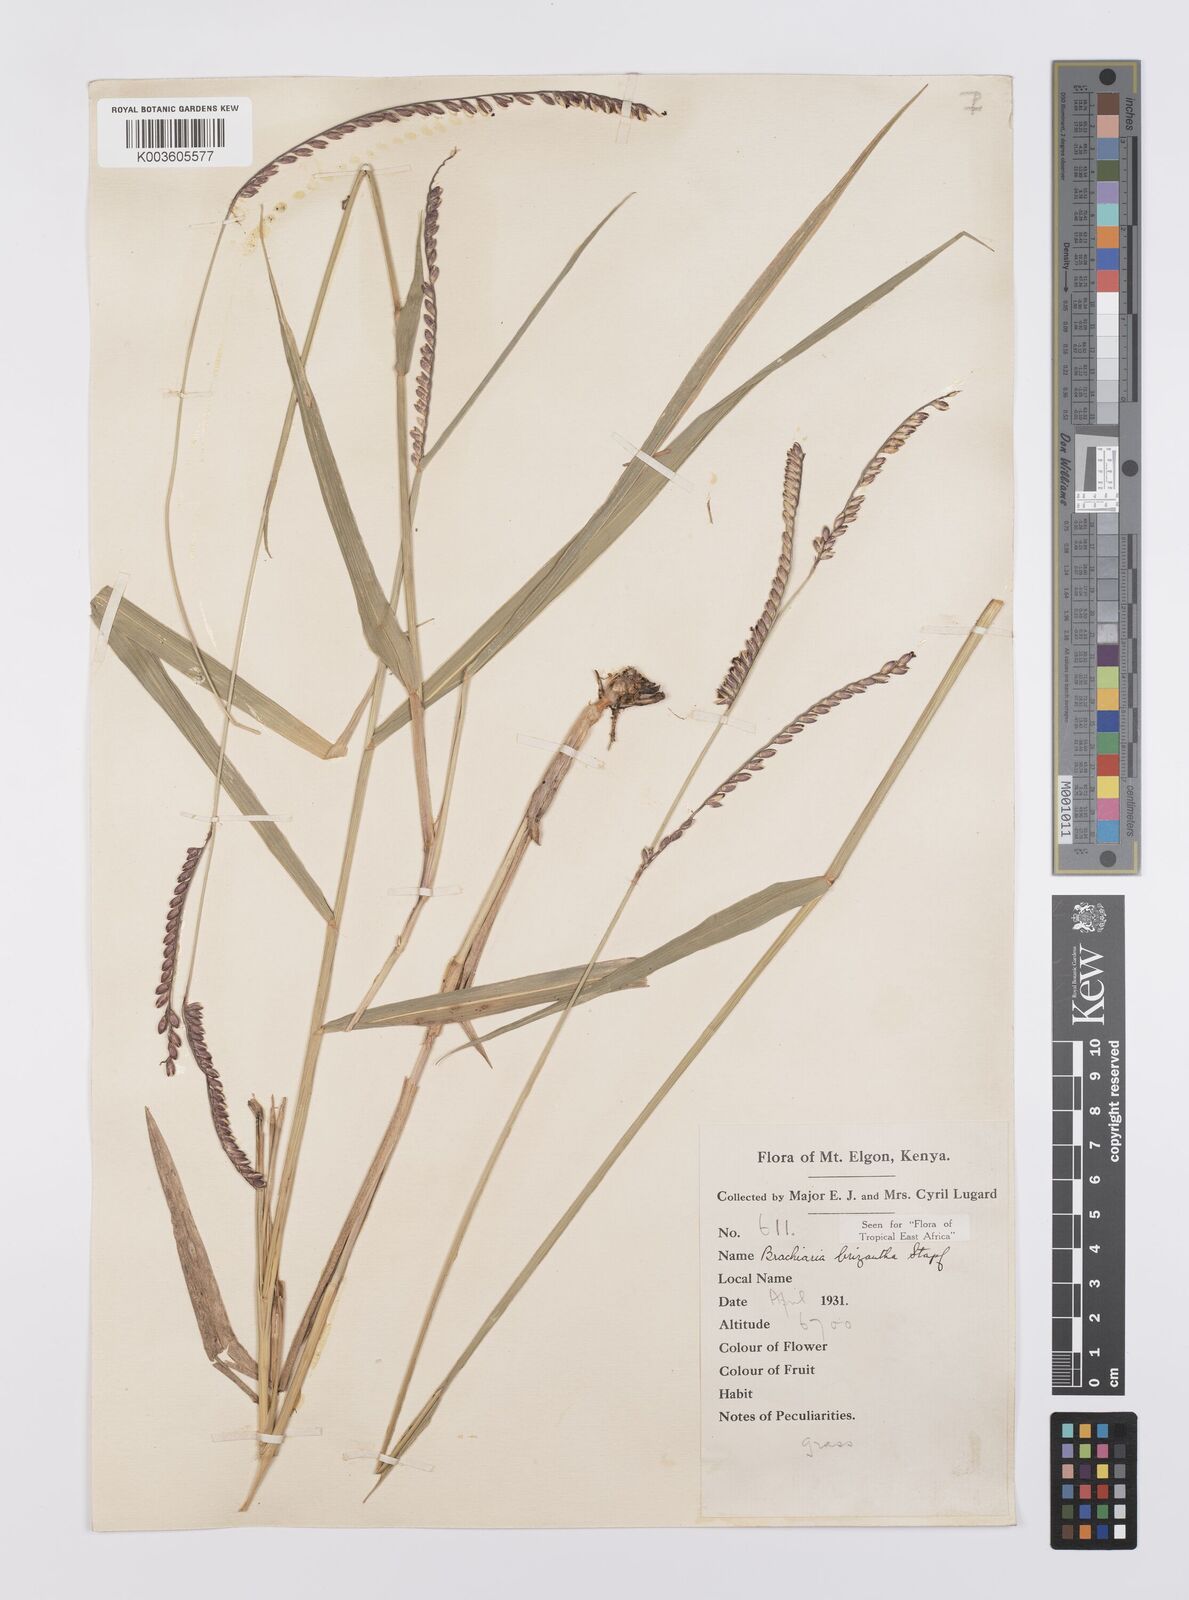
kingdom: Plantae
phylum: Tracheophyta
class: Liliopsida
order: Poales
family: Poaceae
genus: Urochloa
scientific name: Urochloa brizantha
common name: Palisade signalgrass
